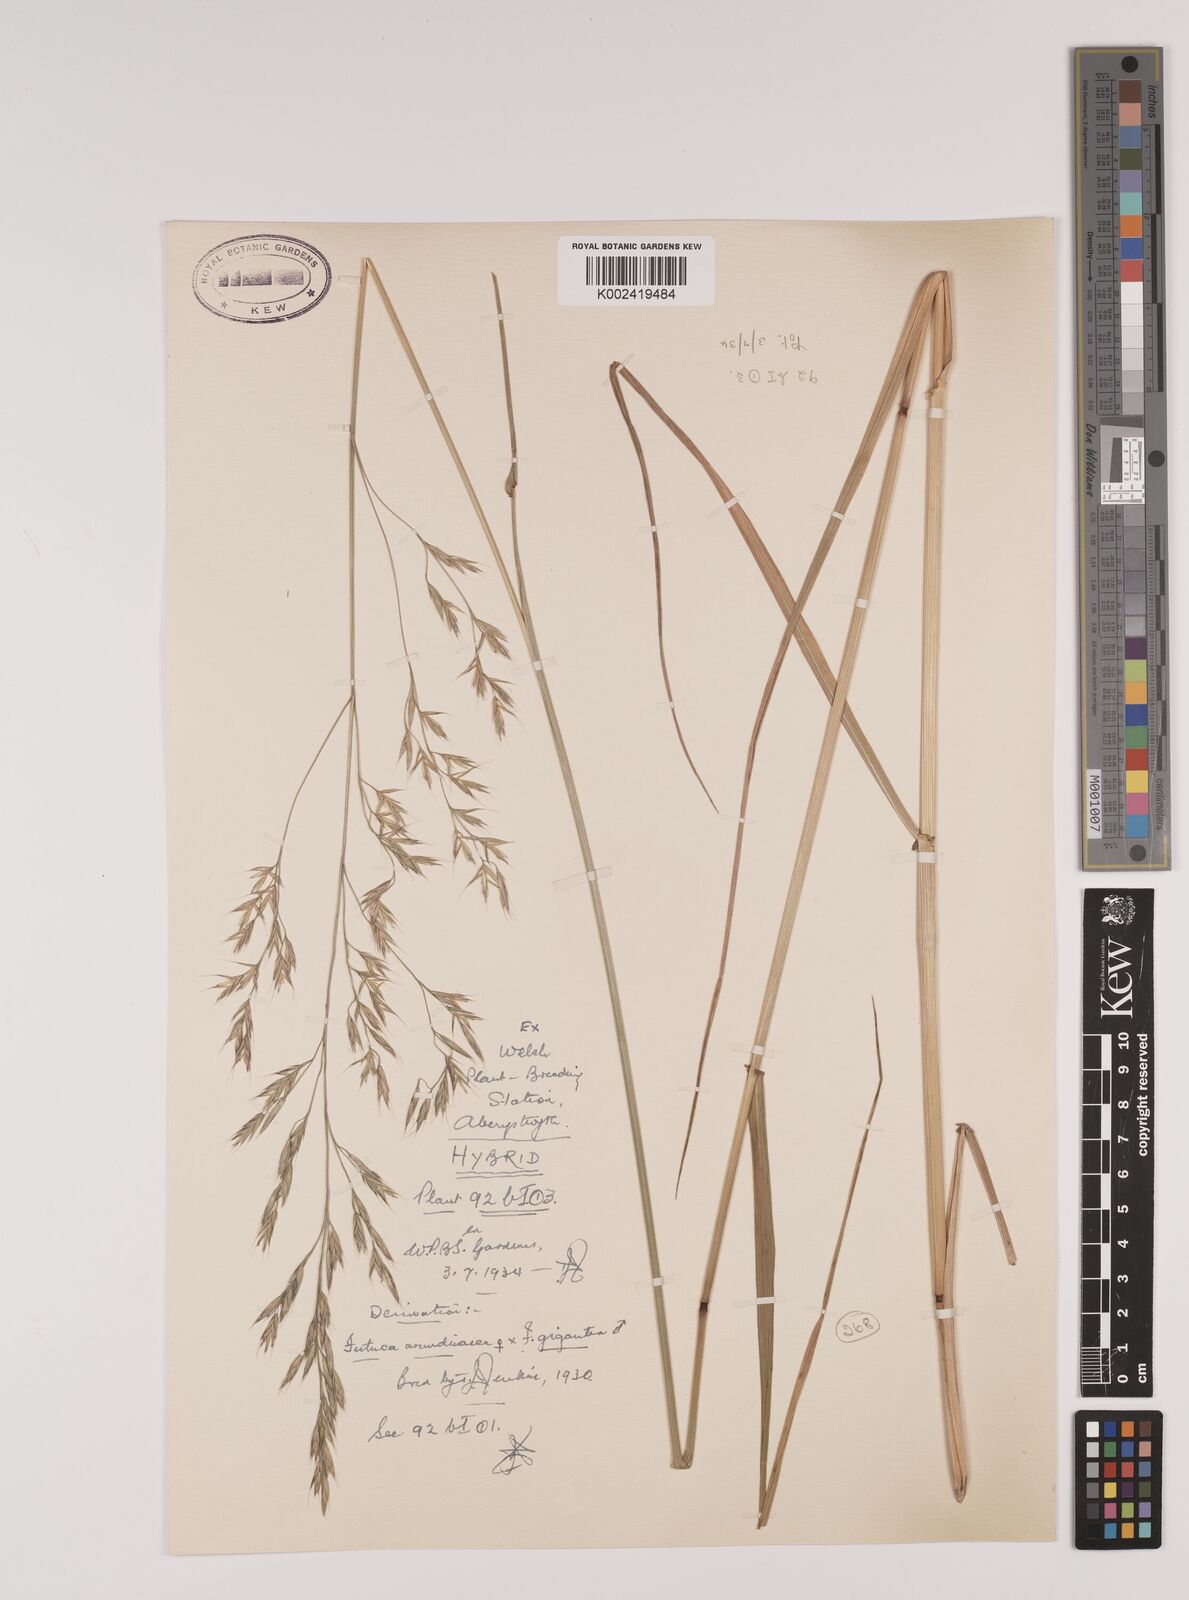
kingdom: Plantae
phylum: Tracheophyta
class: Liliopsida
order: Poales
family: Poaceae
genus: Lolium
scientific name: Lolium giganteum
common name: Giant fescue
